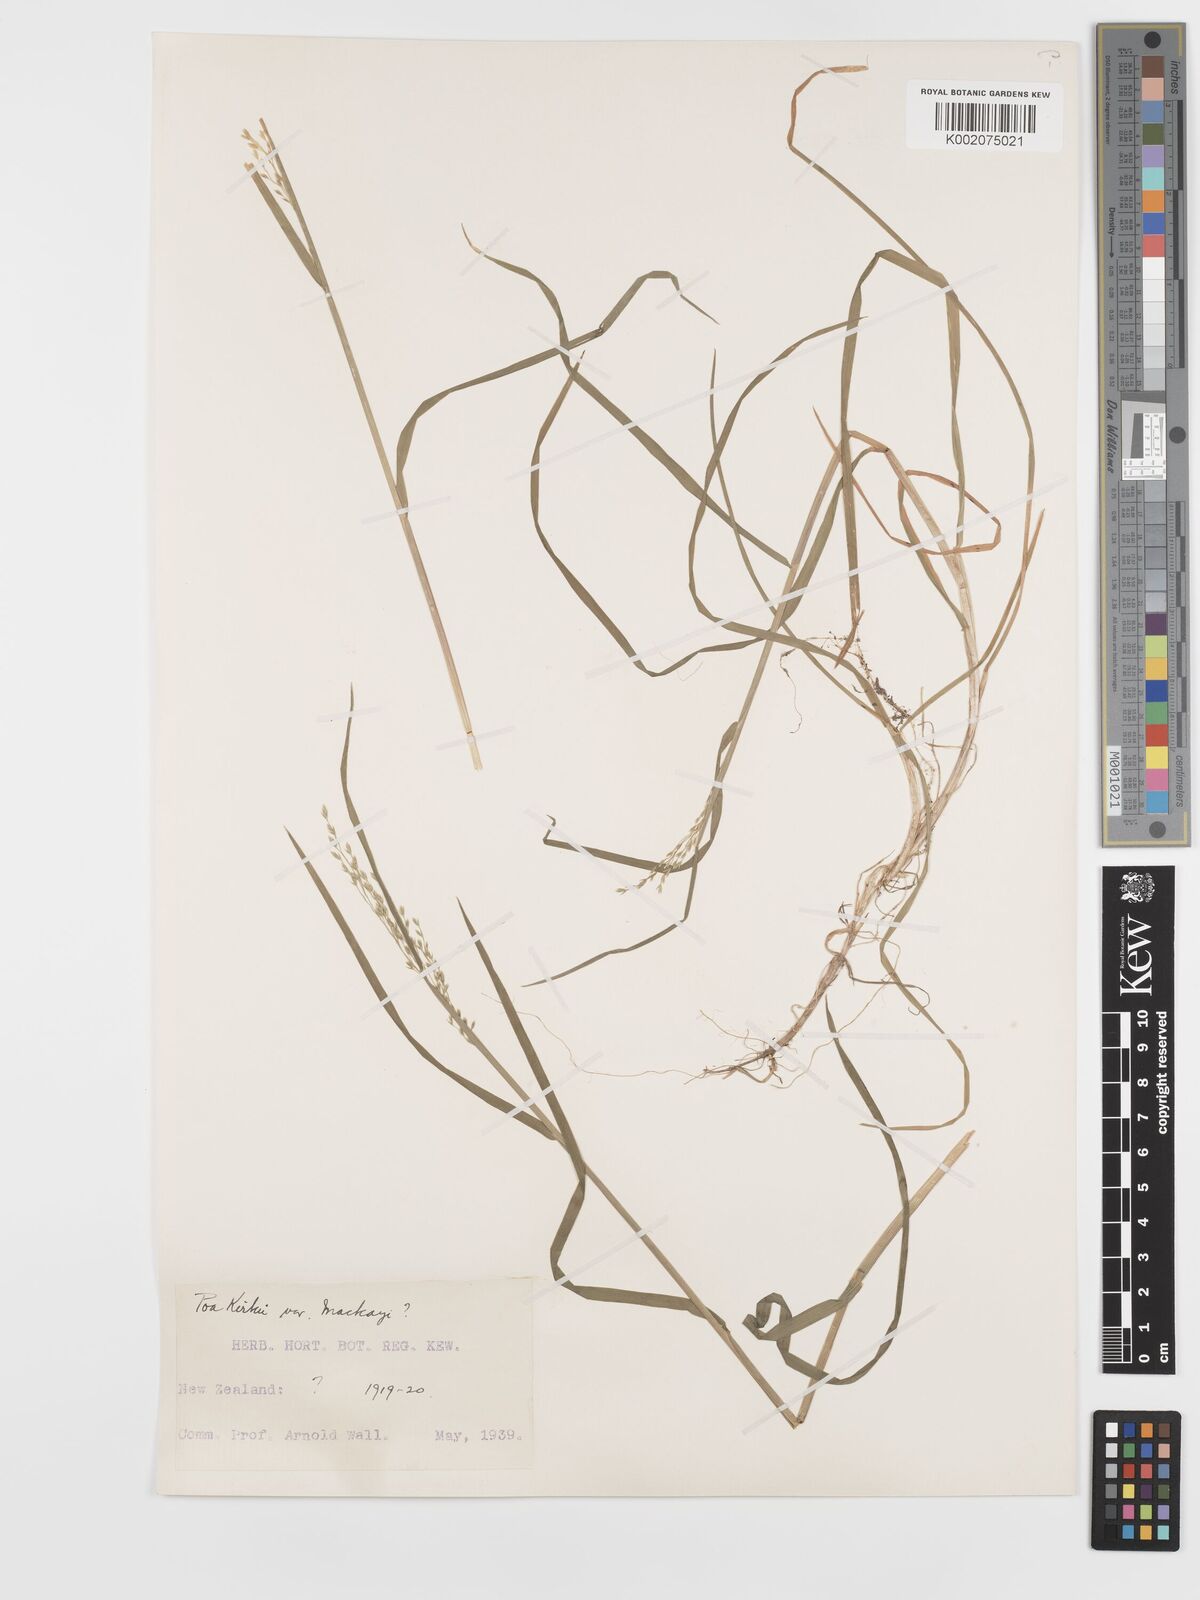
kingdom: Plantae
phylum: Tracheophyta
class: Liliopsida
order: Poales
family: Poaceae
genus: Poa
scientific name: Poa kirkii
